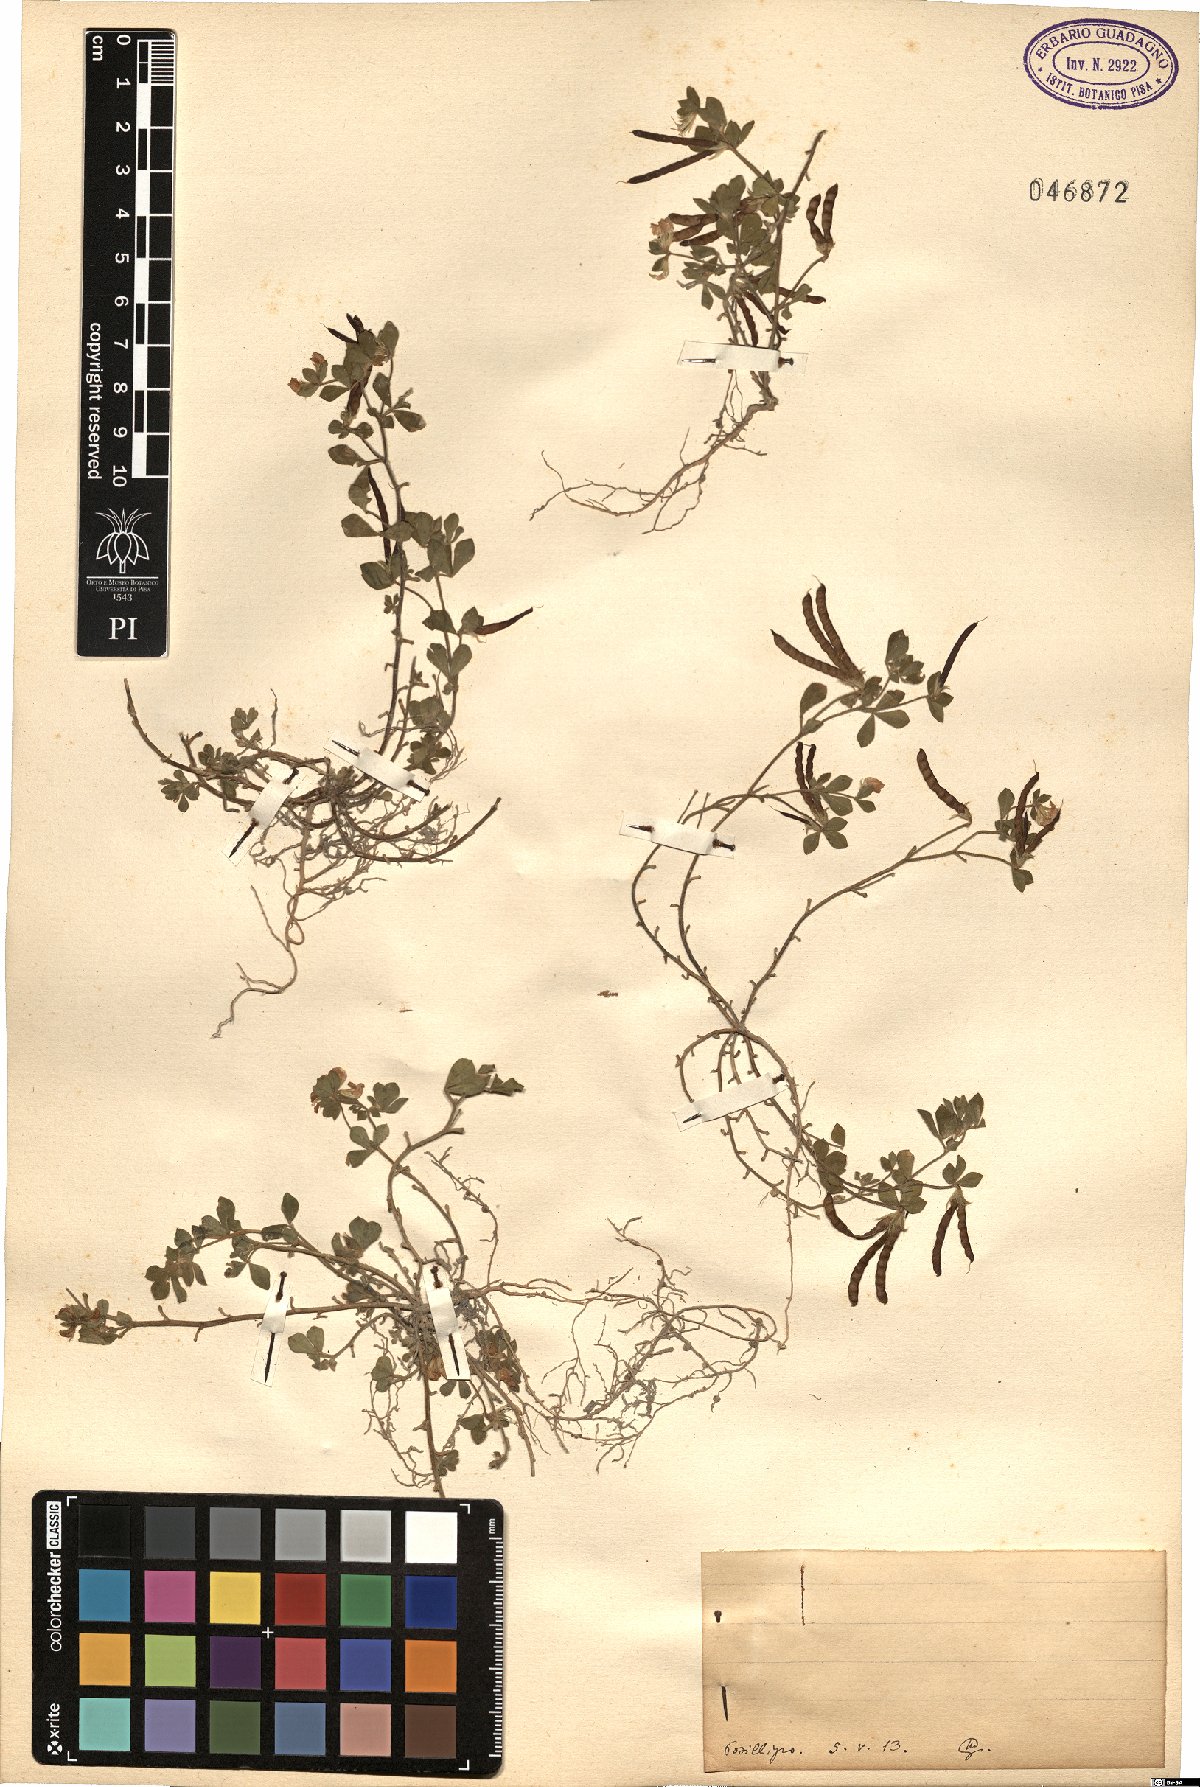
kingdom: Plantae
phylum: Tracheophyta
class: Magnoliopsida
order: Fabales
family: Fabaceae
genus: Lotus
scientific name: Lotus
